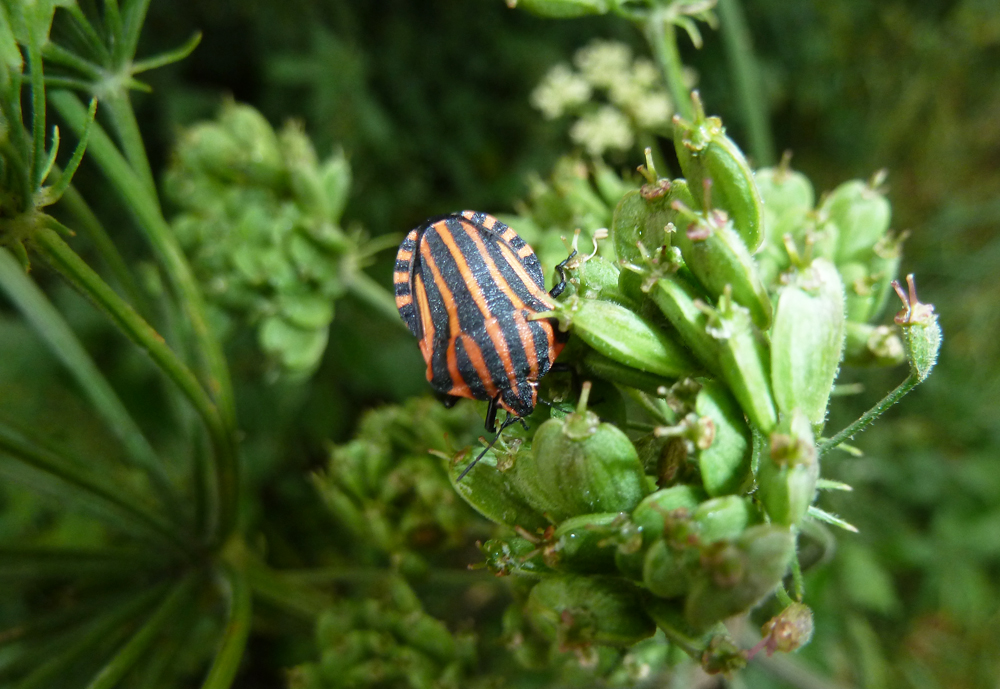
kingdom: Animalia
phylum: Arthropoda
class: Insecta
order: Hemiptera
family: Pentatomidae
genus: Graphosoma
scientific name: Graphosoma lineatum
